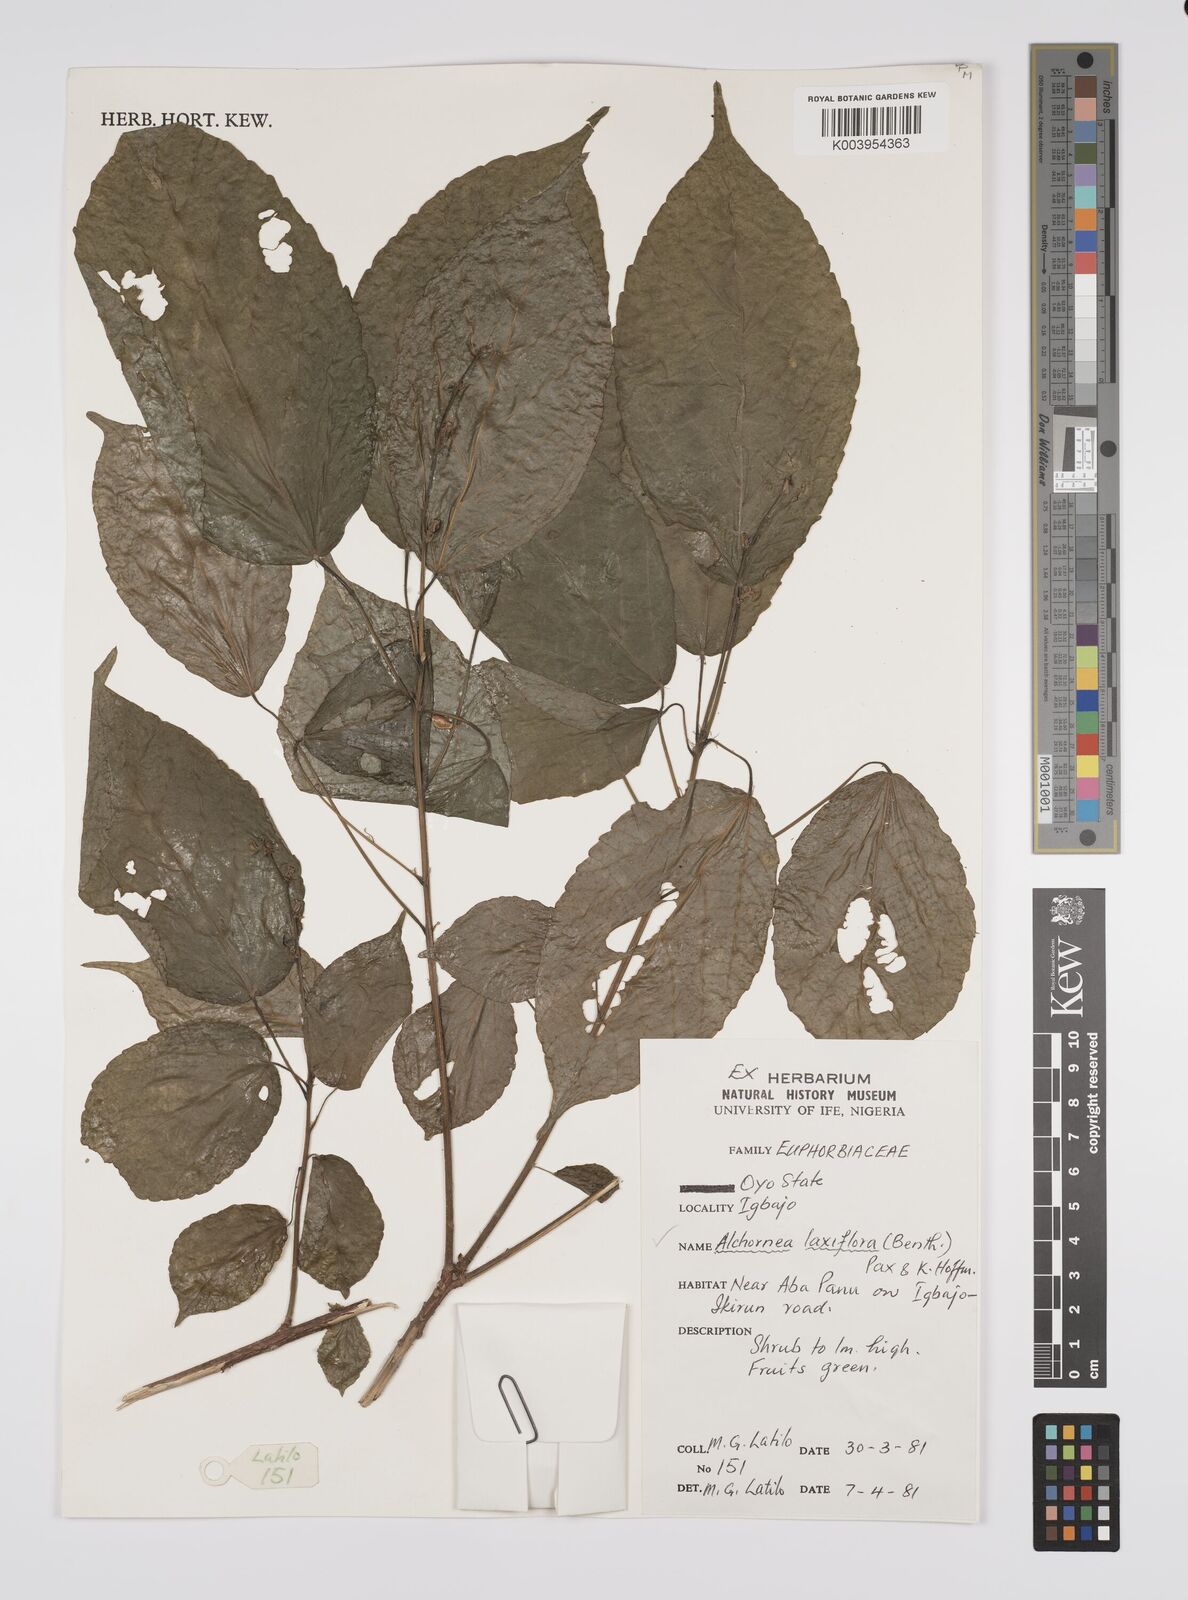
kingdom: Plantae
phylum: Tracheophyta
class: Magnoliopsida
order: Malpighiales
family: Euphorbiaceae
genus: Alchornea
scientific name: Alchornea cordifolia
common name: Christmasbush
